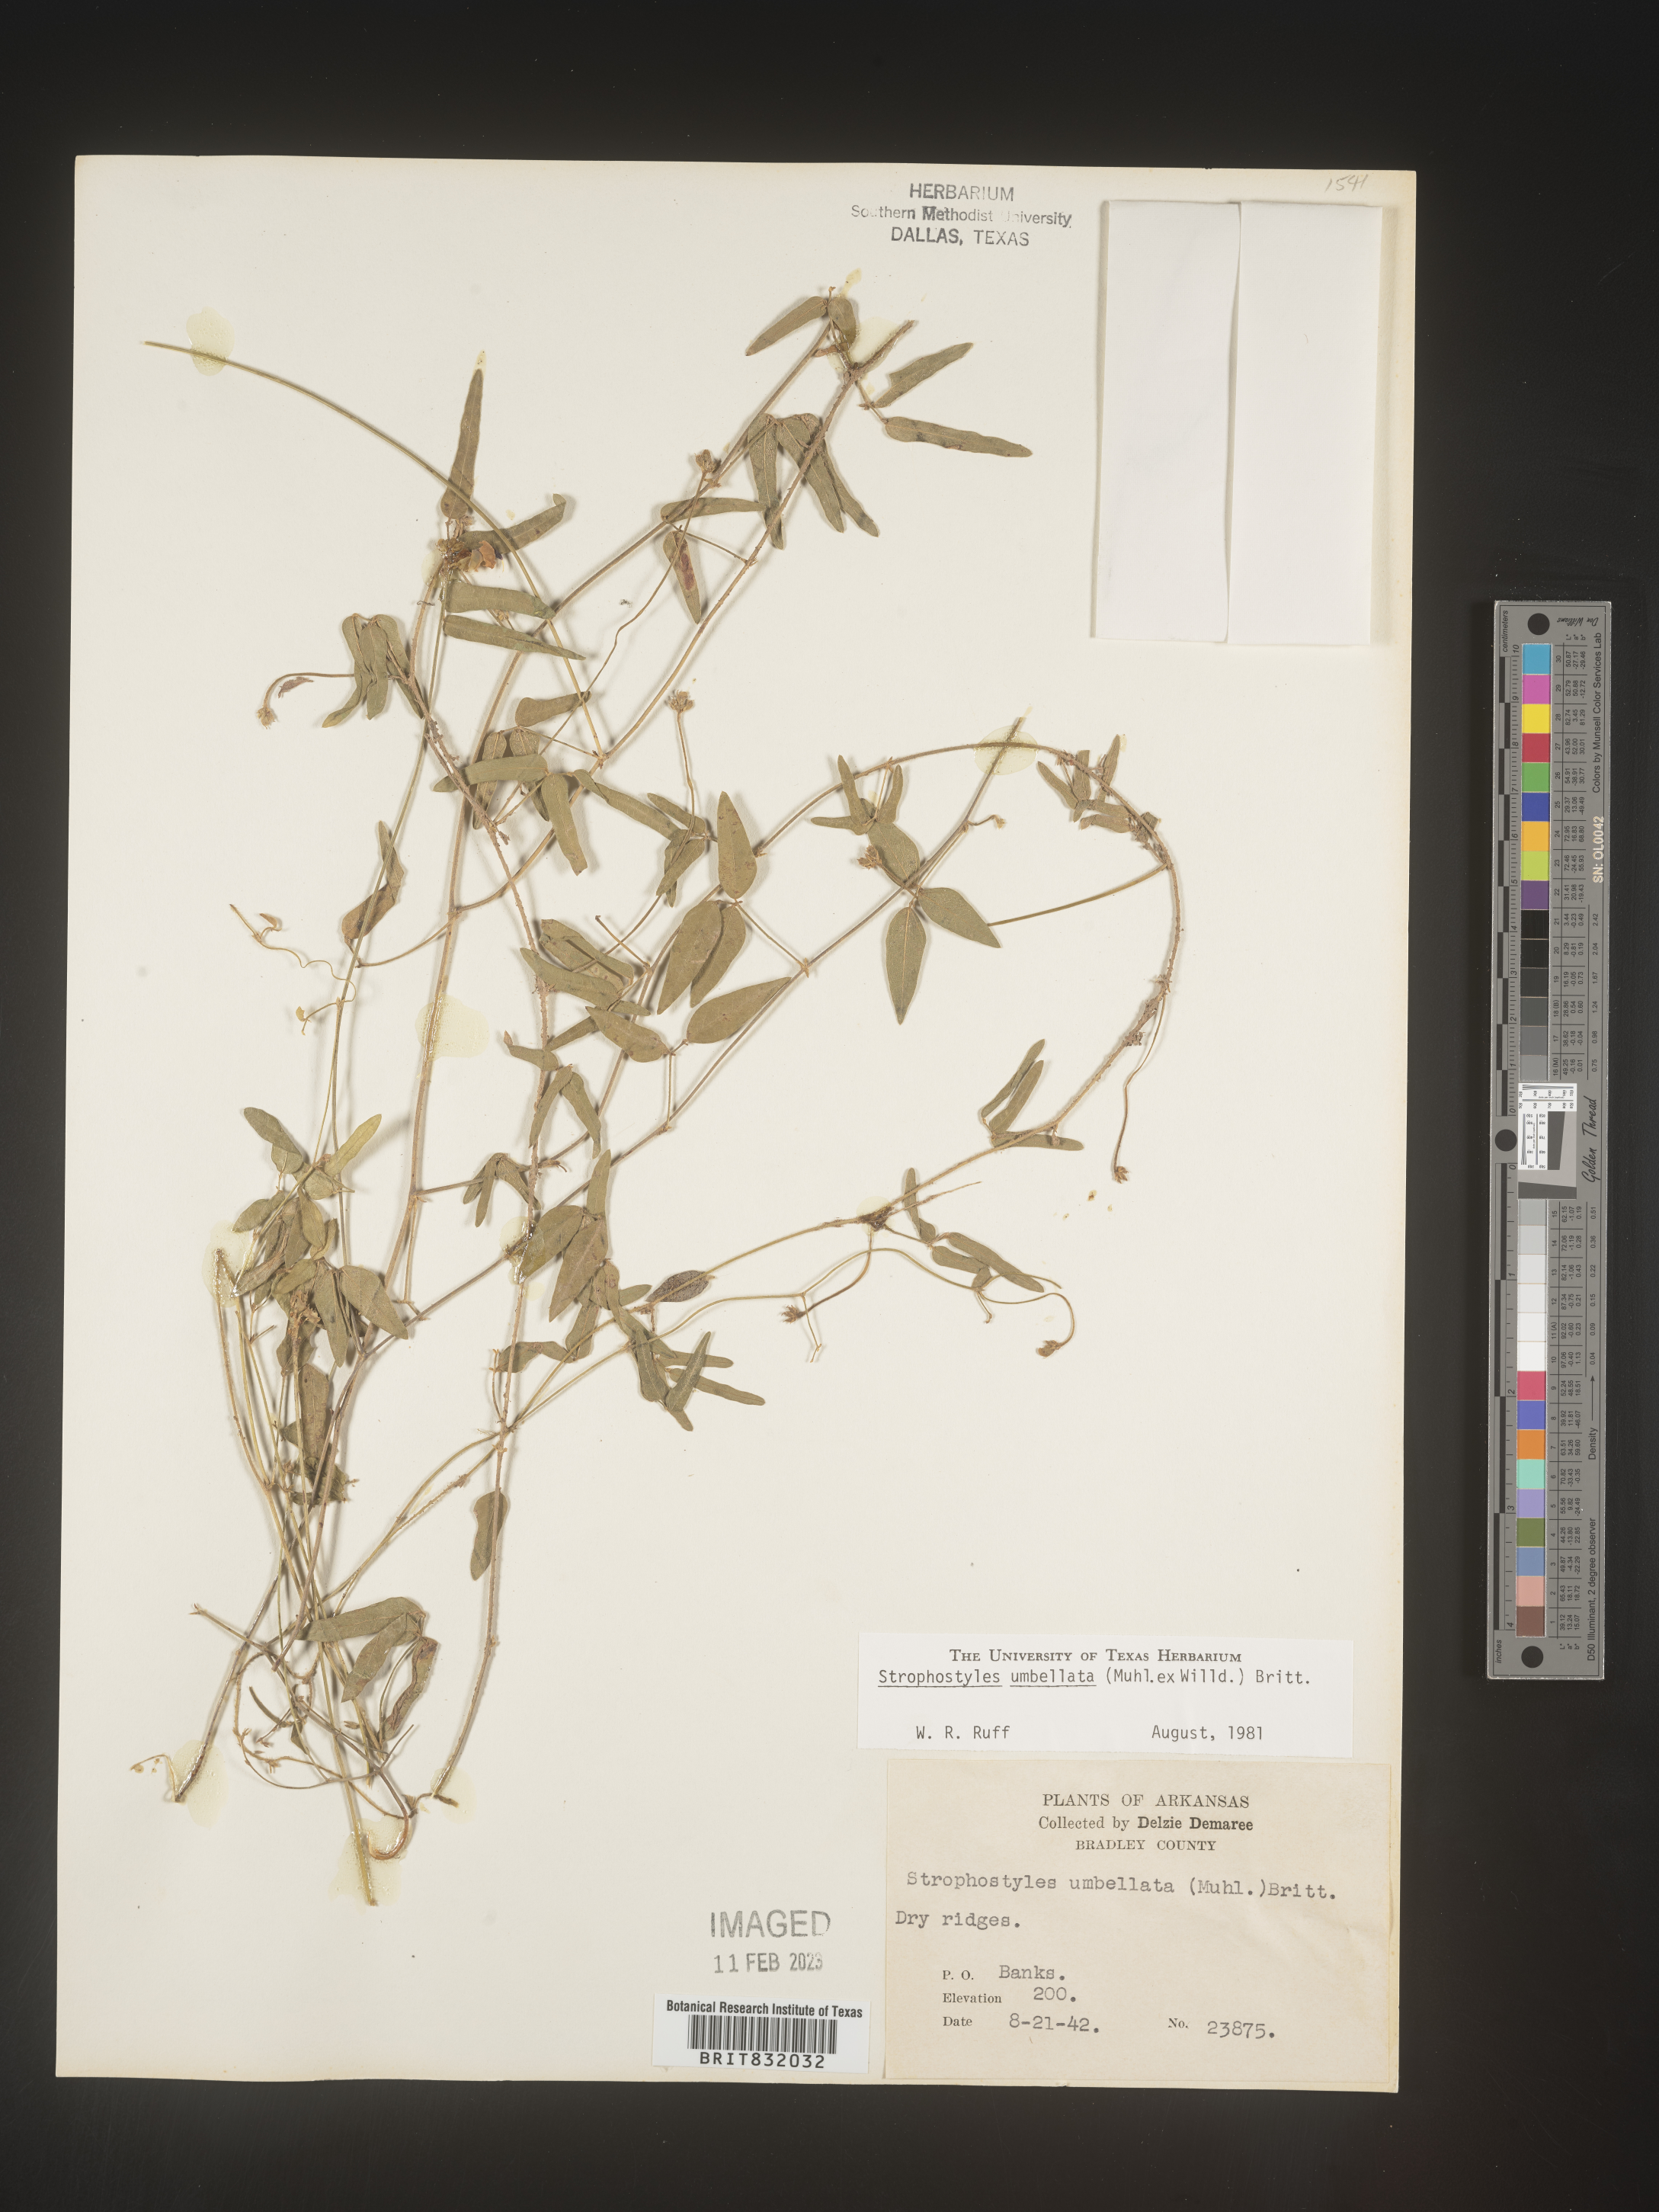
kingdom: Plantae
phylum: Tracheophyta
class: Magnoliopsida
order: Fabales
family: Fabaceae
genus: Strophostyles
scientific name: Strophostyles umbellata
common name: Perennial wild bean
